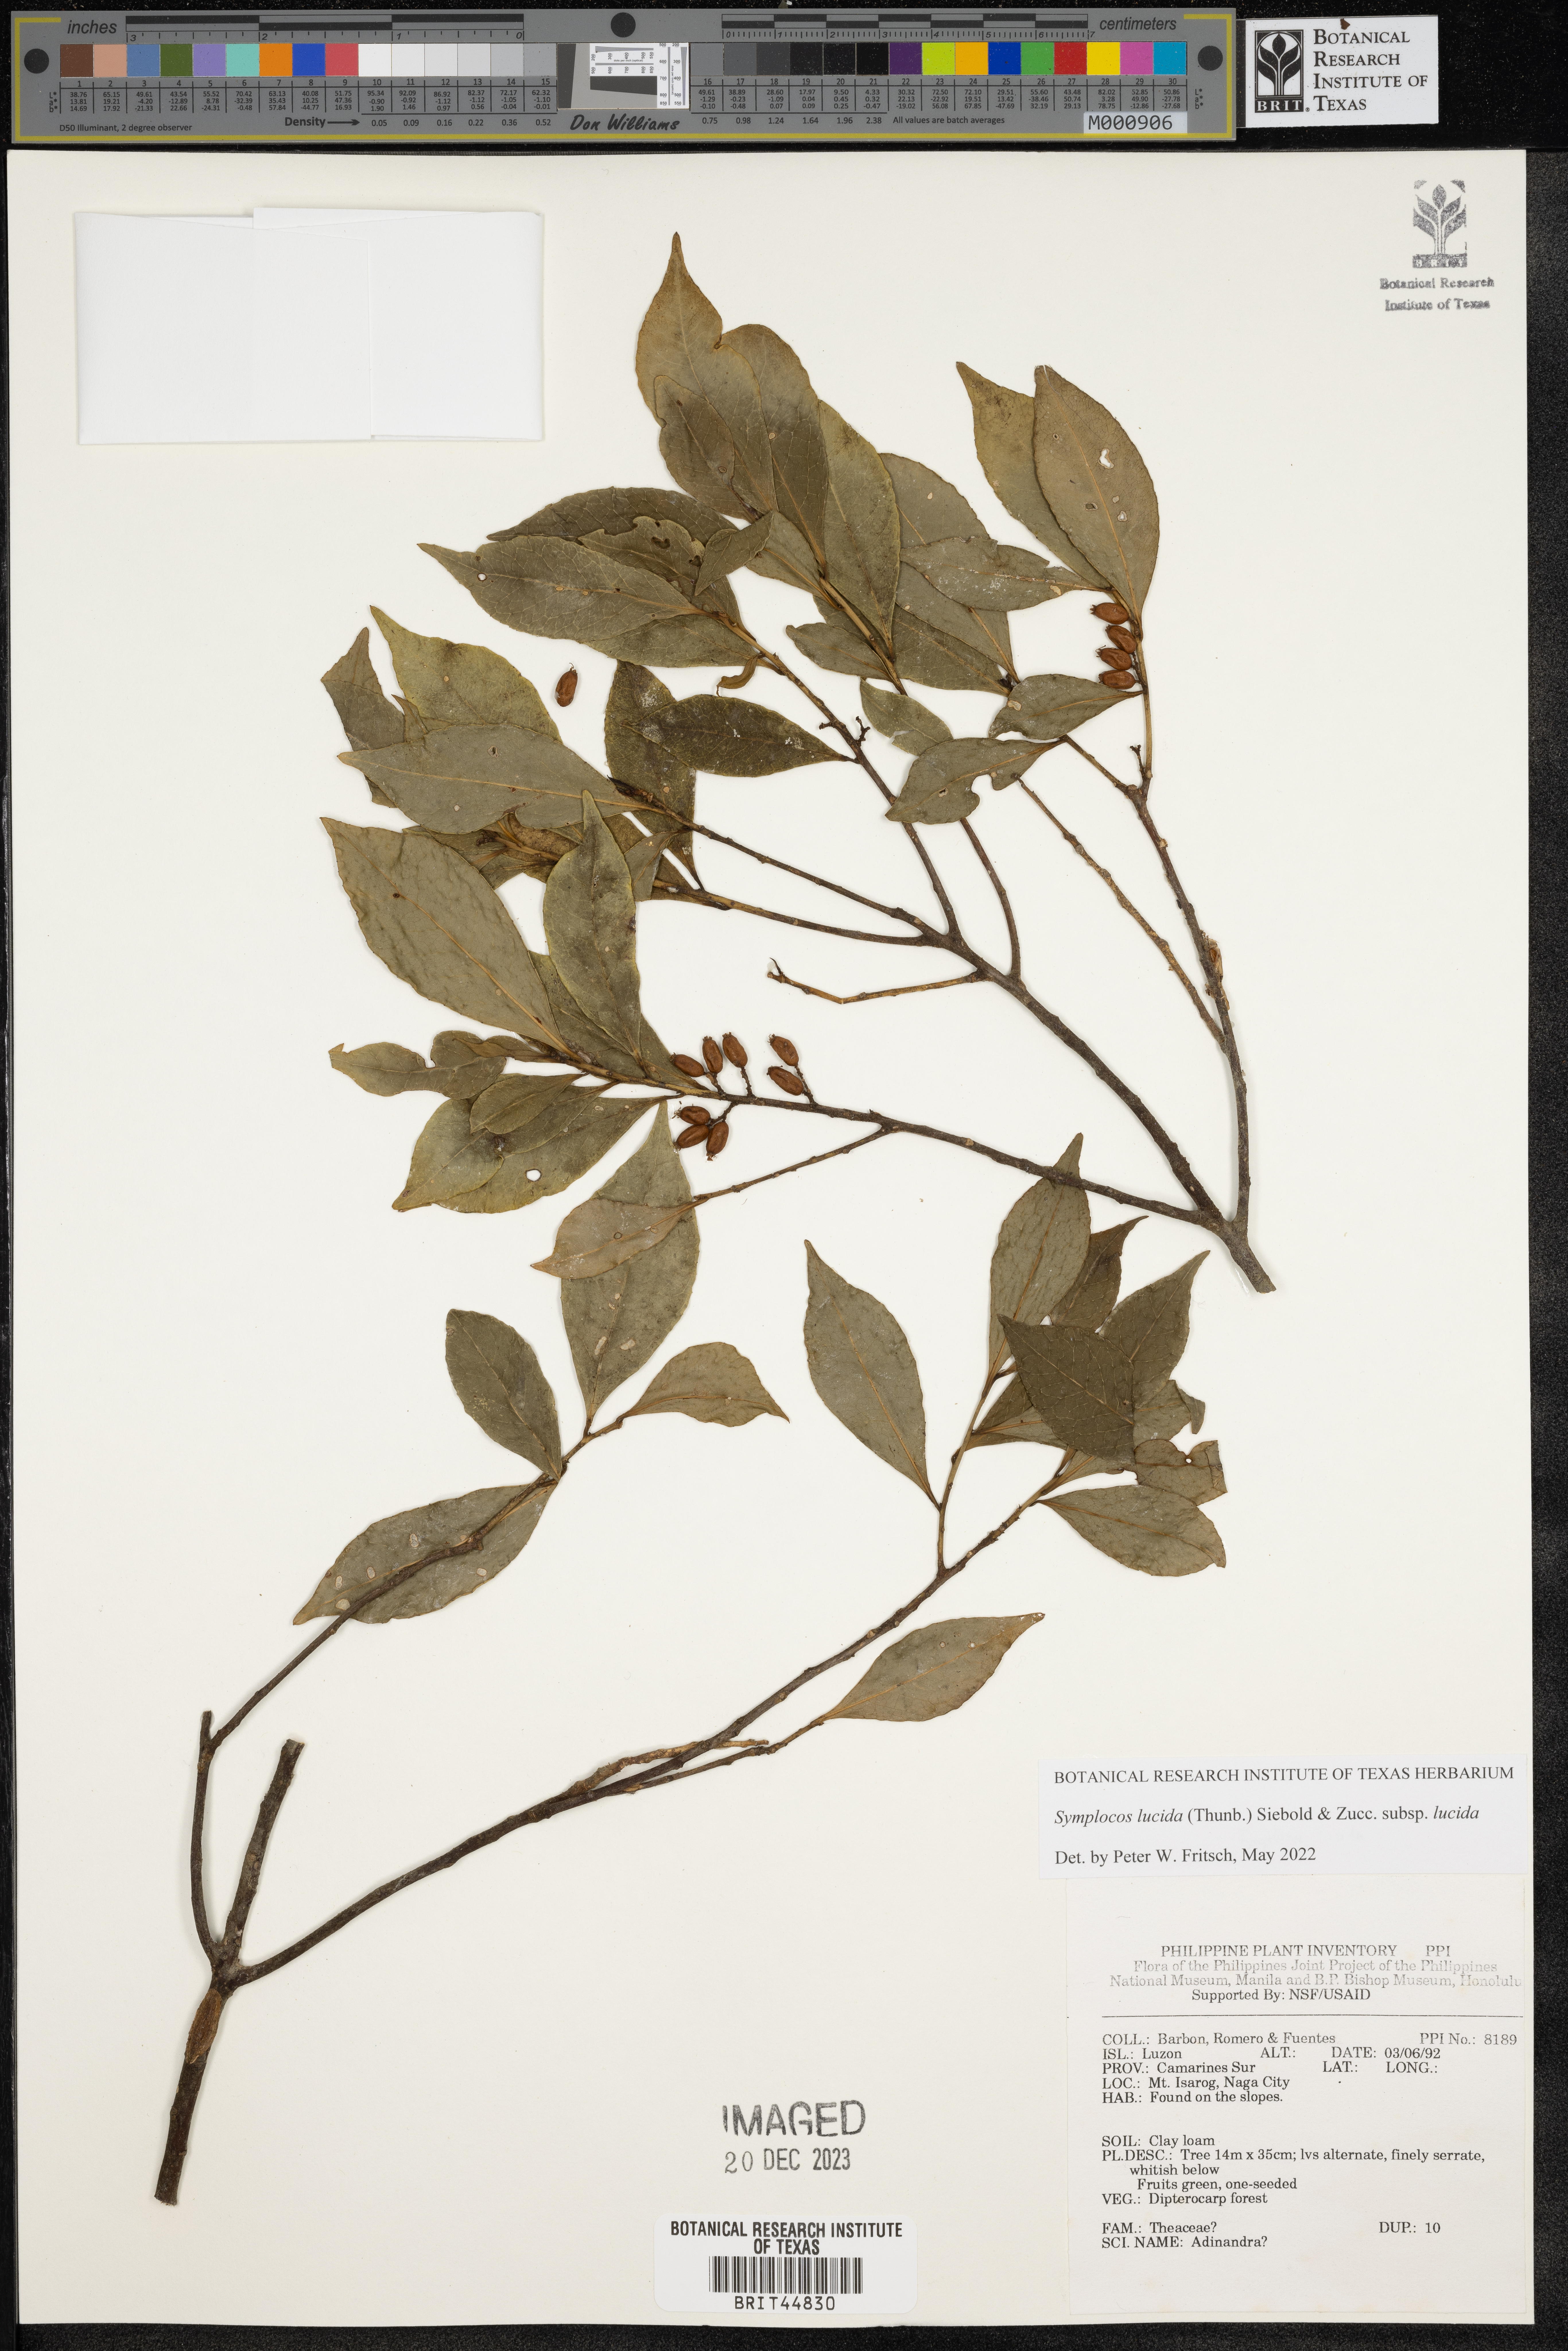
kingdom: Plantae
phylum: Tracheophyta
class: Magnoliopsida
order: Ericales
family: Pentaphylacaceae
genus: Adinandra
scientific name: Adinandra
